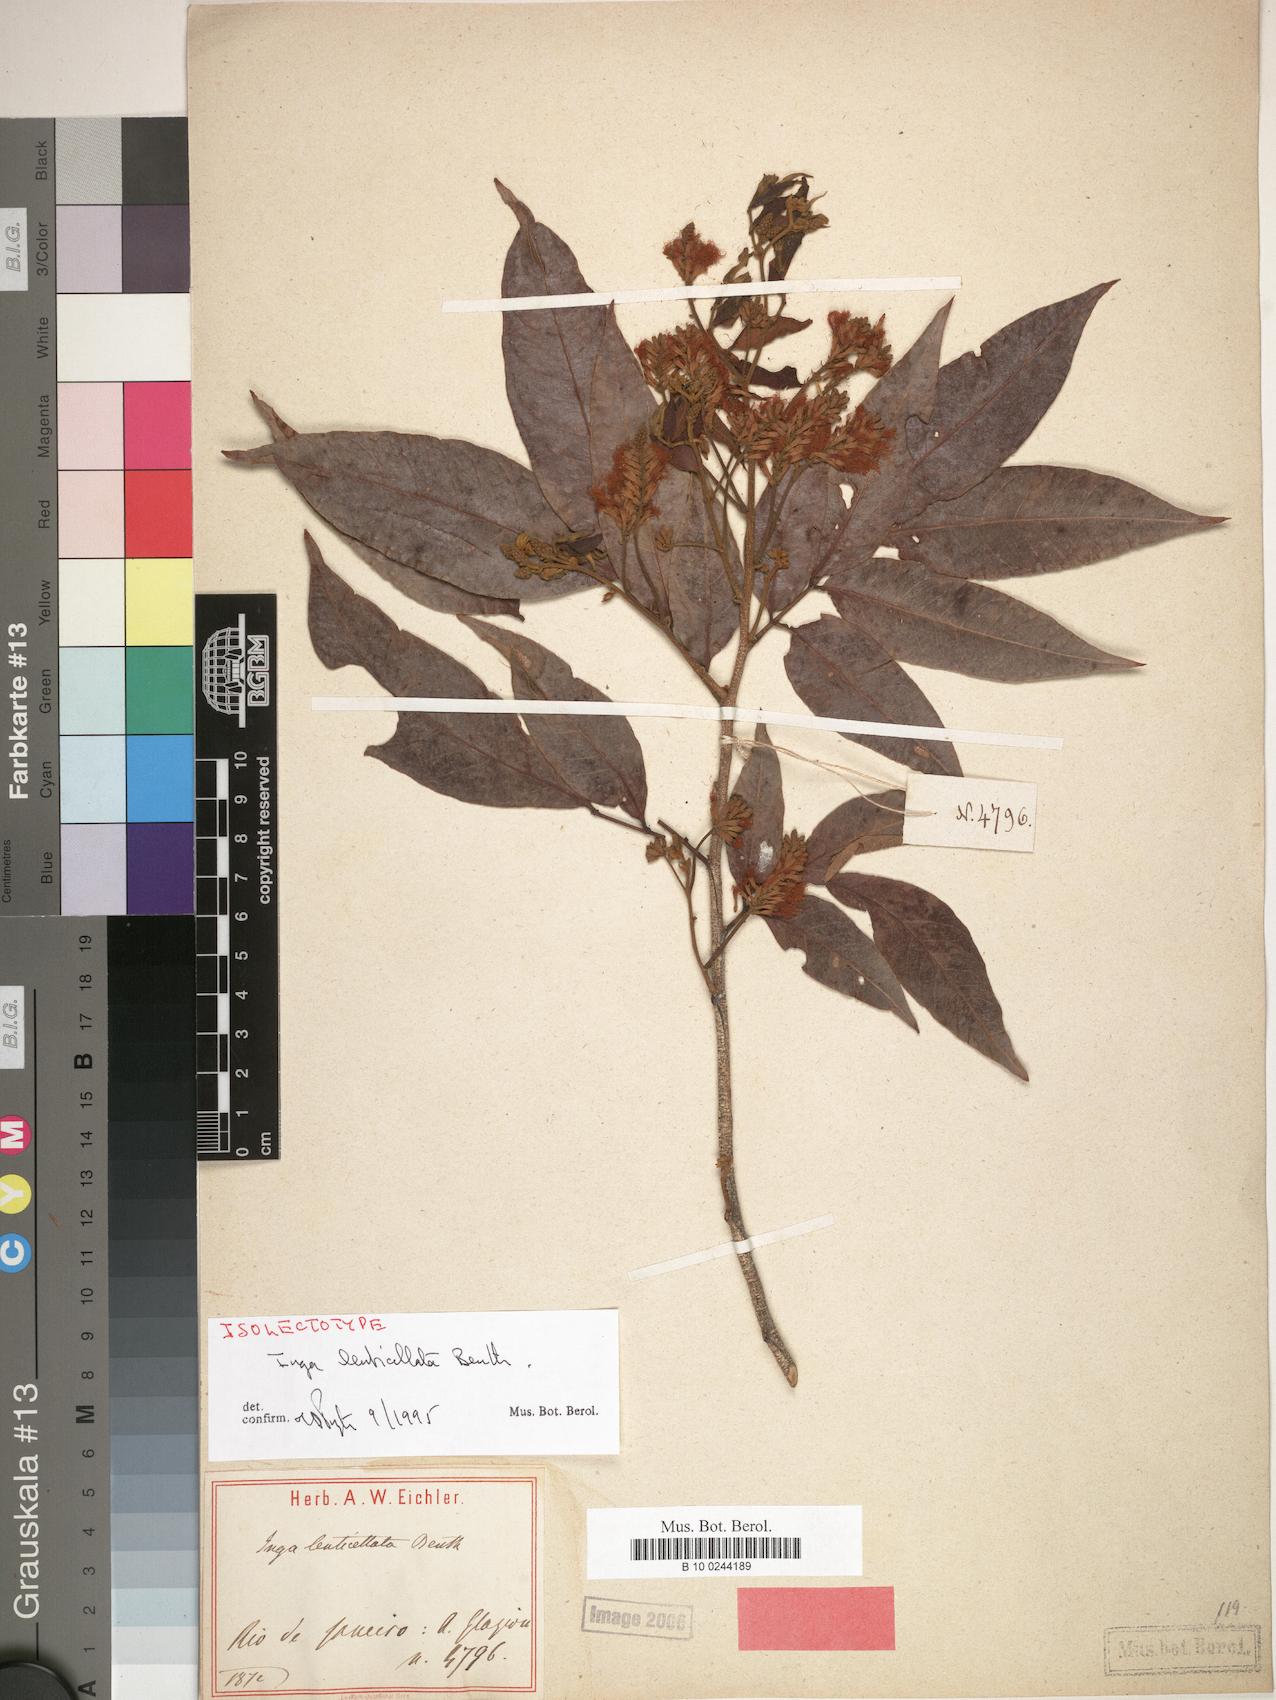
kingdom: Plantae
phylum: Tracheophyta
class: Magnoliopsida
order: Fabales
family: Fabaceae
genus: Inga
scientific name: Inga lenticellata
